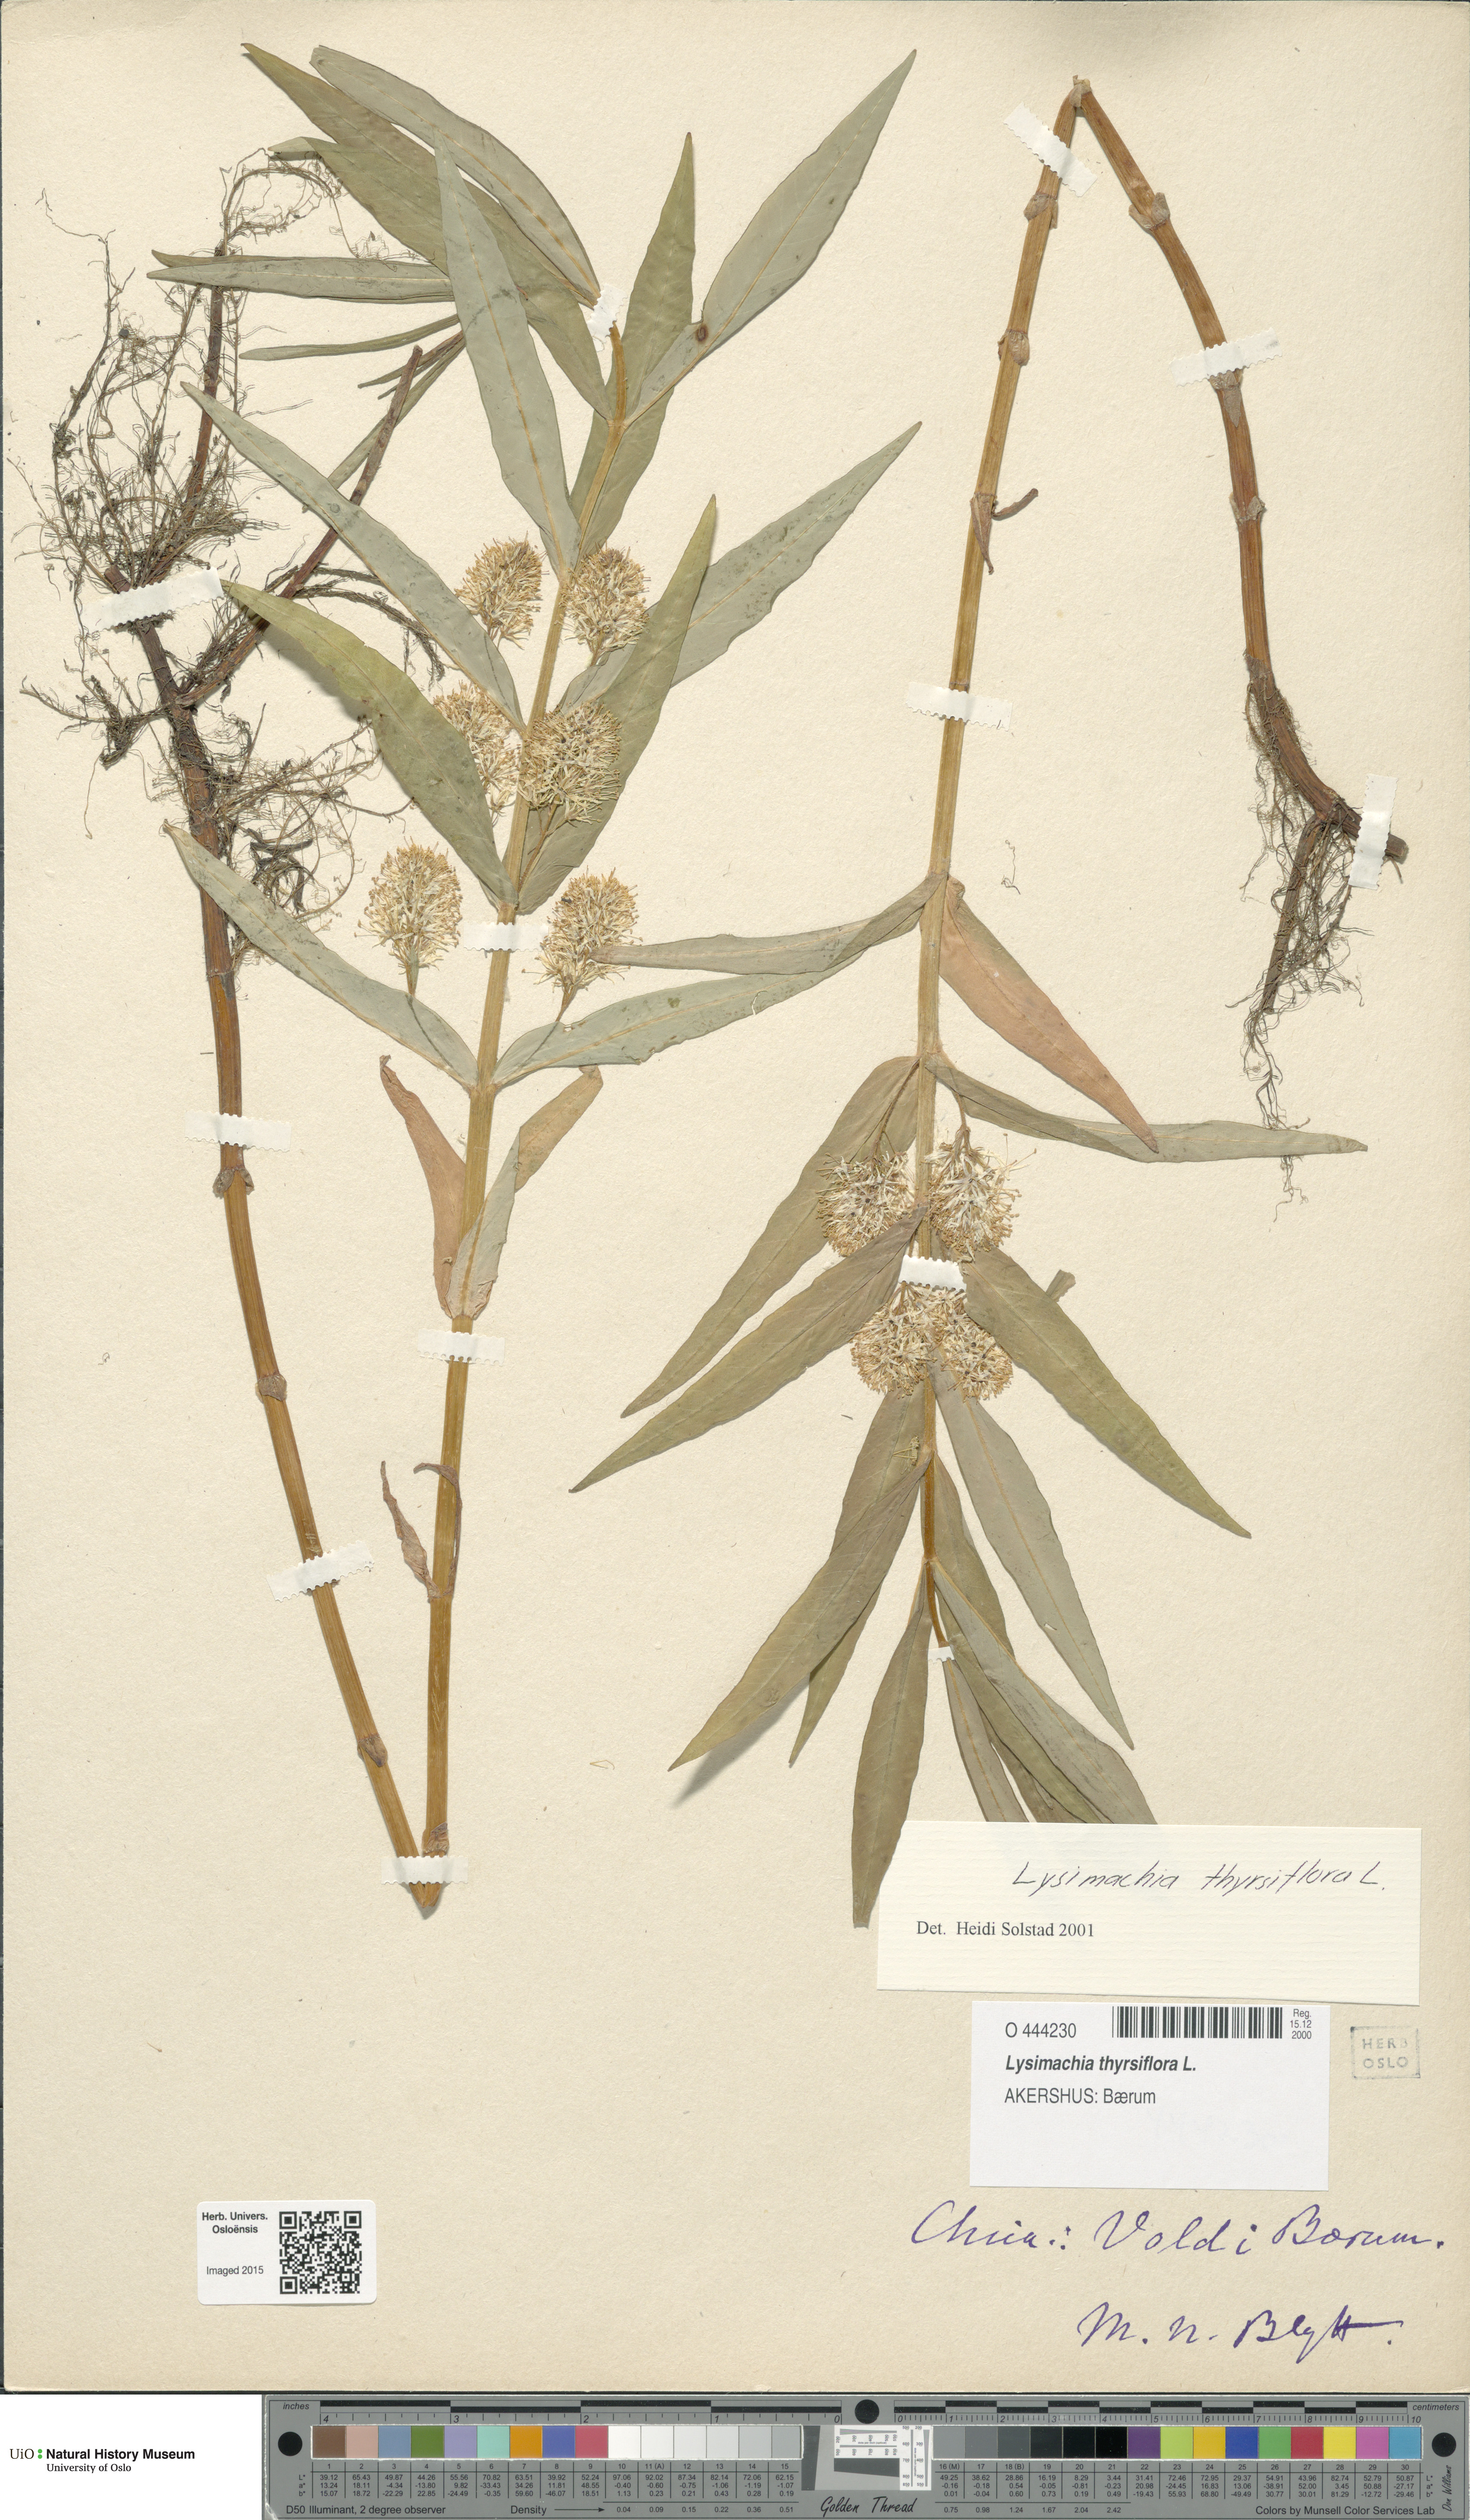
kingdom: Plantae
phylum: Tracheophyta
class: Magnoliopsida
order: Ericales
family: Primulaceae
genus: Lysimachia
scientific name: Lysimachia thyrsiflora
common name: Tufted loosestrife
